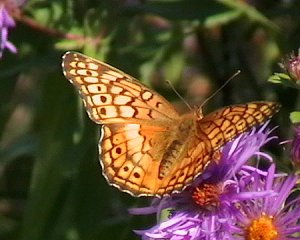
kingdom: Animalia
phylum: Arthropoda
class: Insecta
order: Lepidoptera
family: Nymphalidae
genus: Euptoieta
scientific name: Euptoieta claudia
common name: Variegated Fritillary
